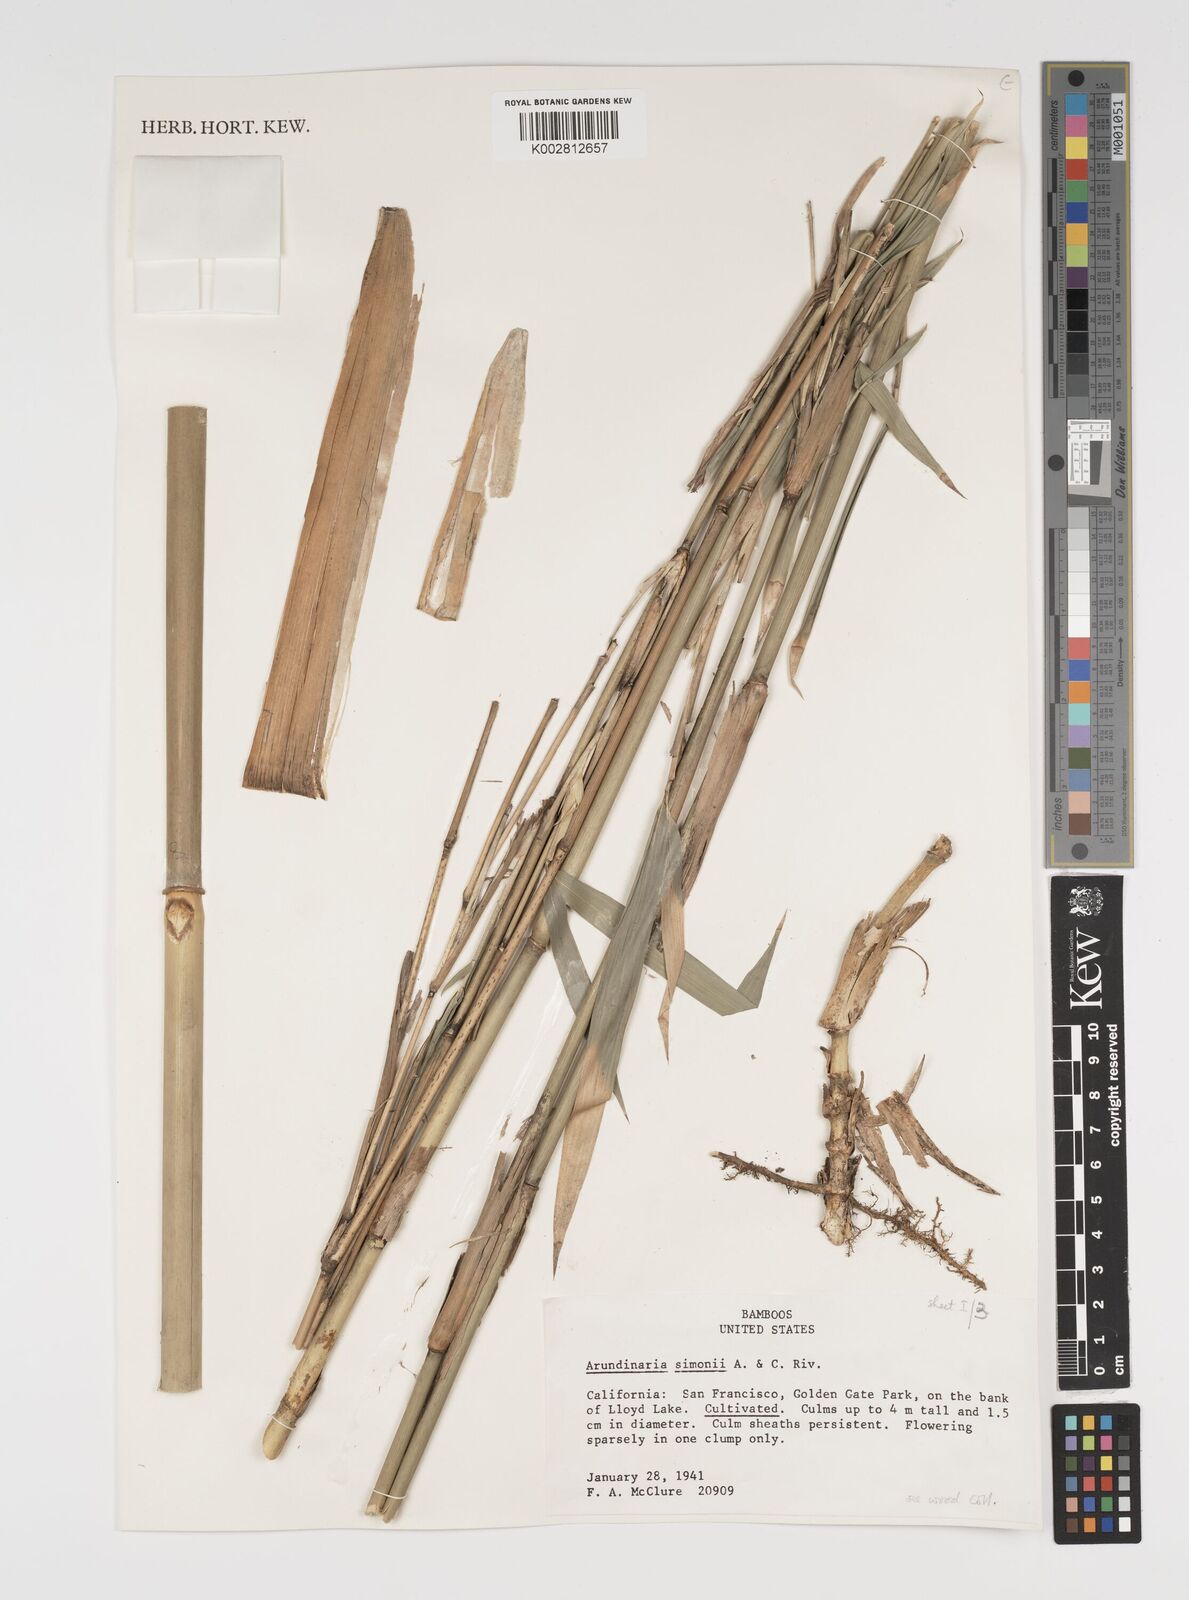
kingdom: Plantae
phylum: Tracheophyta
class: Liliopsida
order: Poales
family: Poaceae
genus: Pleioblastus
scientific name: Pleioblastus simonii
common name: Simon bamboo
